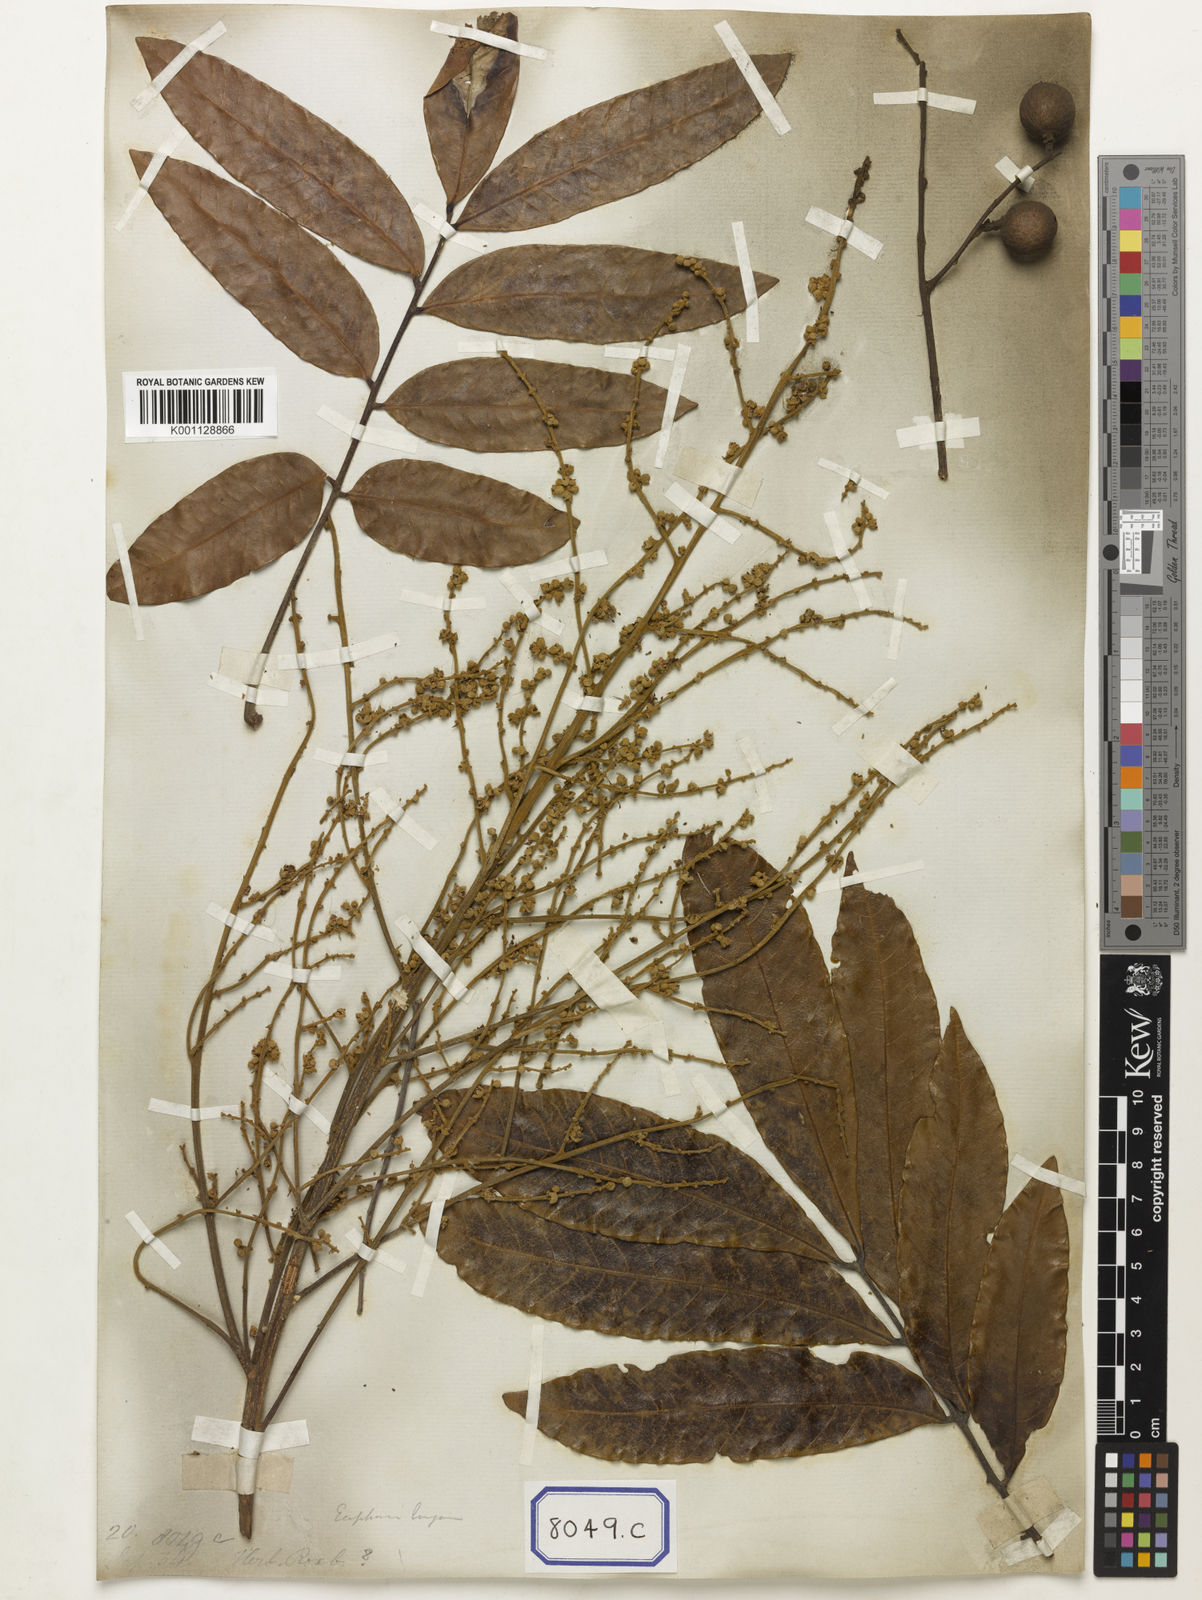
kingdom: Plantae
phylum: Tracheophyta
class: Magnoliopsida
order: Sapindales
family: Sapindaceae
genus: Dimocarpus
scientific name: Dimocarpus longan
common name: Longan
